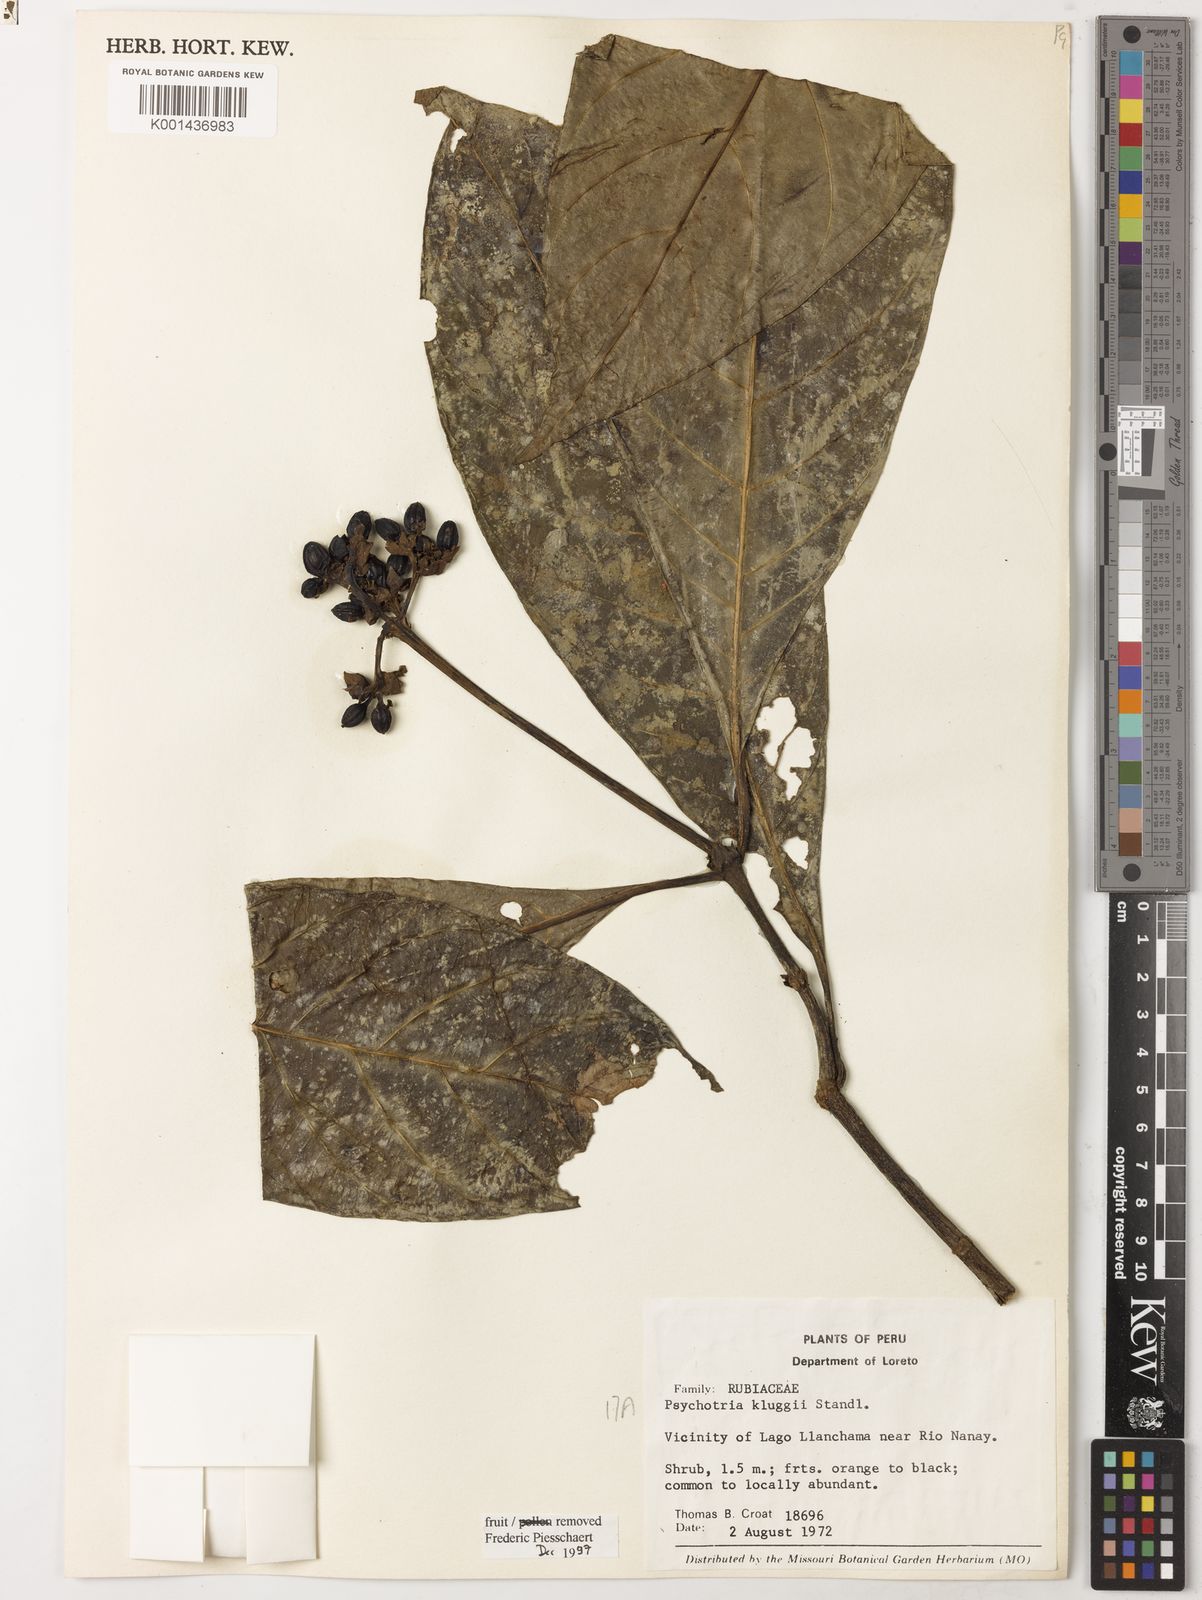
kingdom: Plantae
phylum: Tracheophyta
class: Magnoliopsida
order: Gentianales
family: Rubiaceae
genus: Carapichea
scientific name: Carapichea klugii
